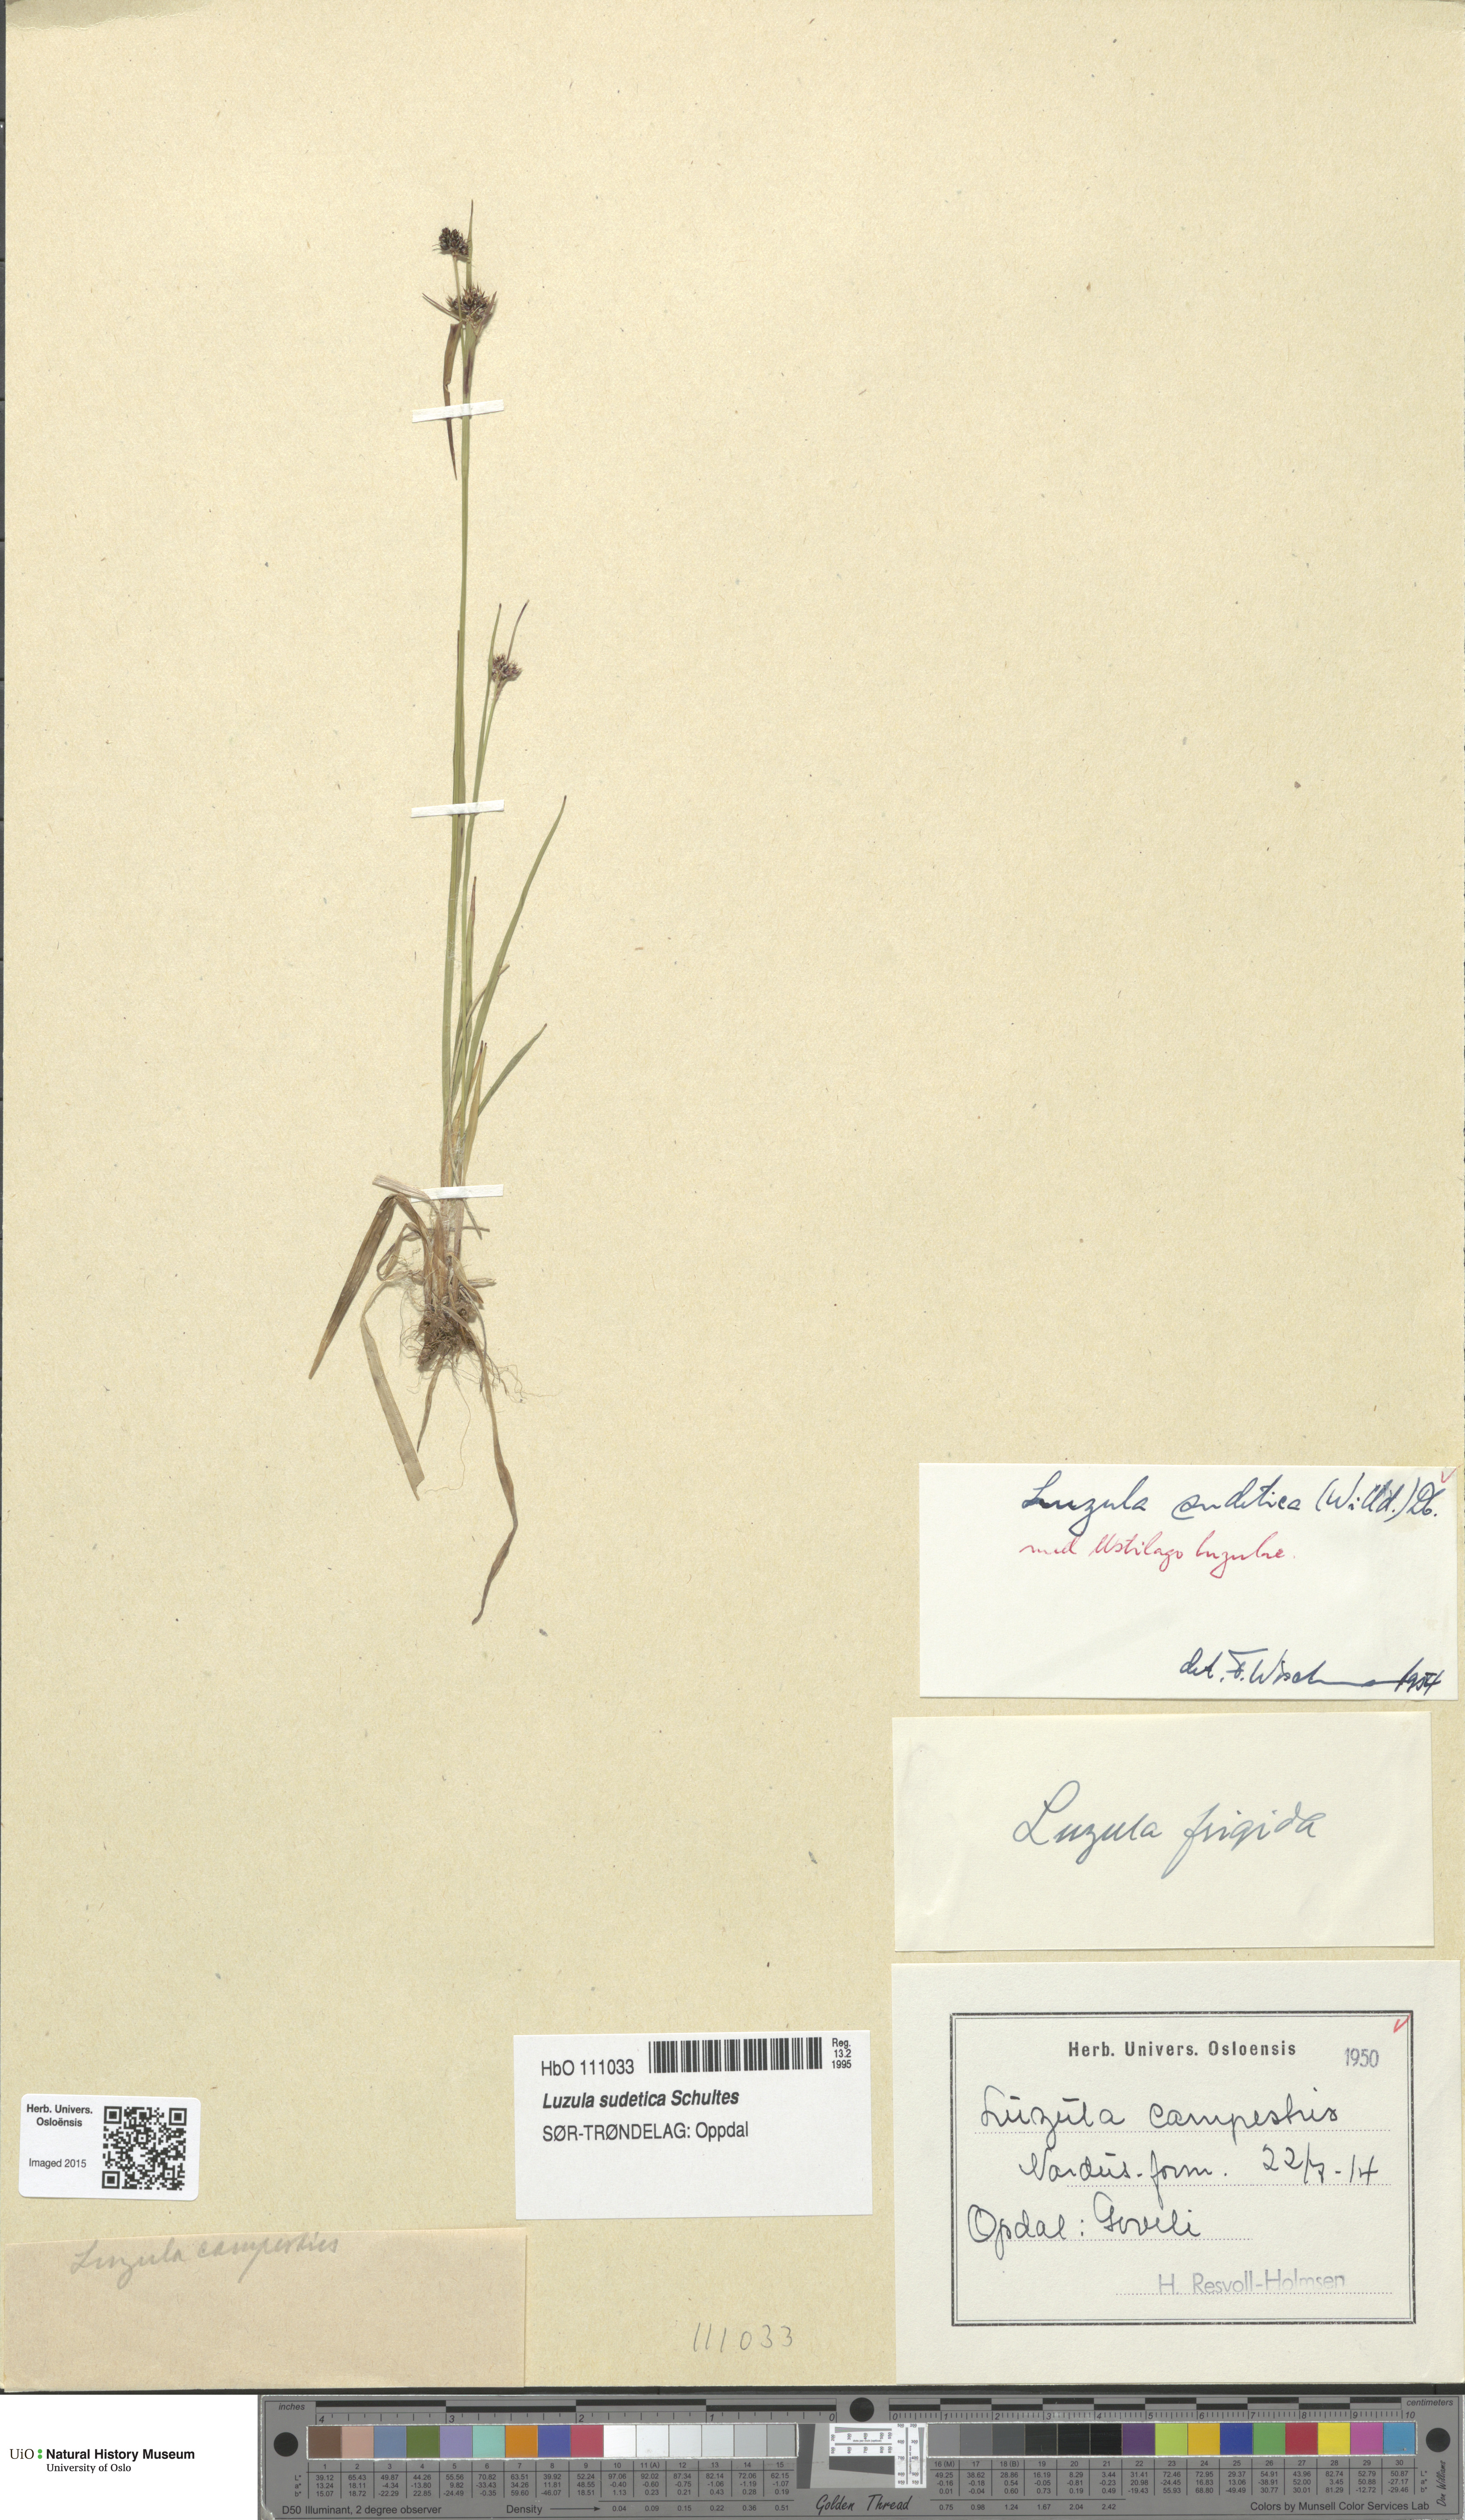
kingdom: Plantae
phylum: Tracheophyta
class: Liliopsida
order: Poales
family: Juncaceae
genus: Luzula
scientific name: Luzula sudetica
